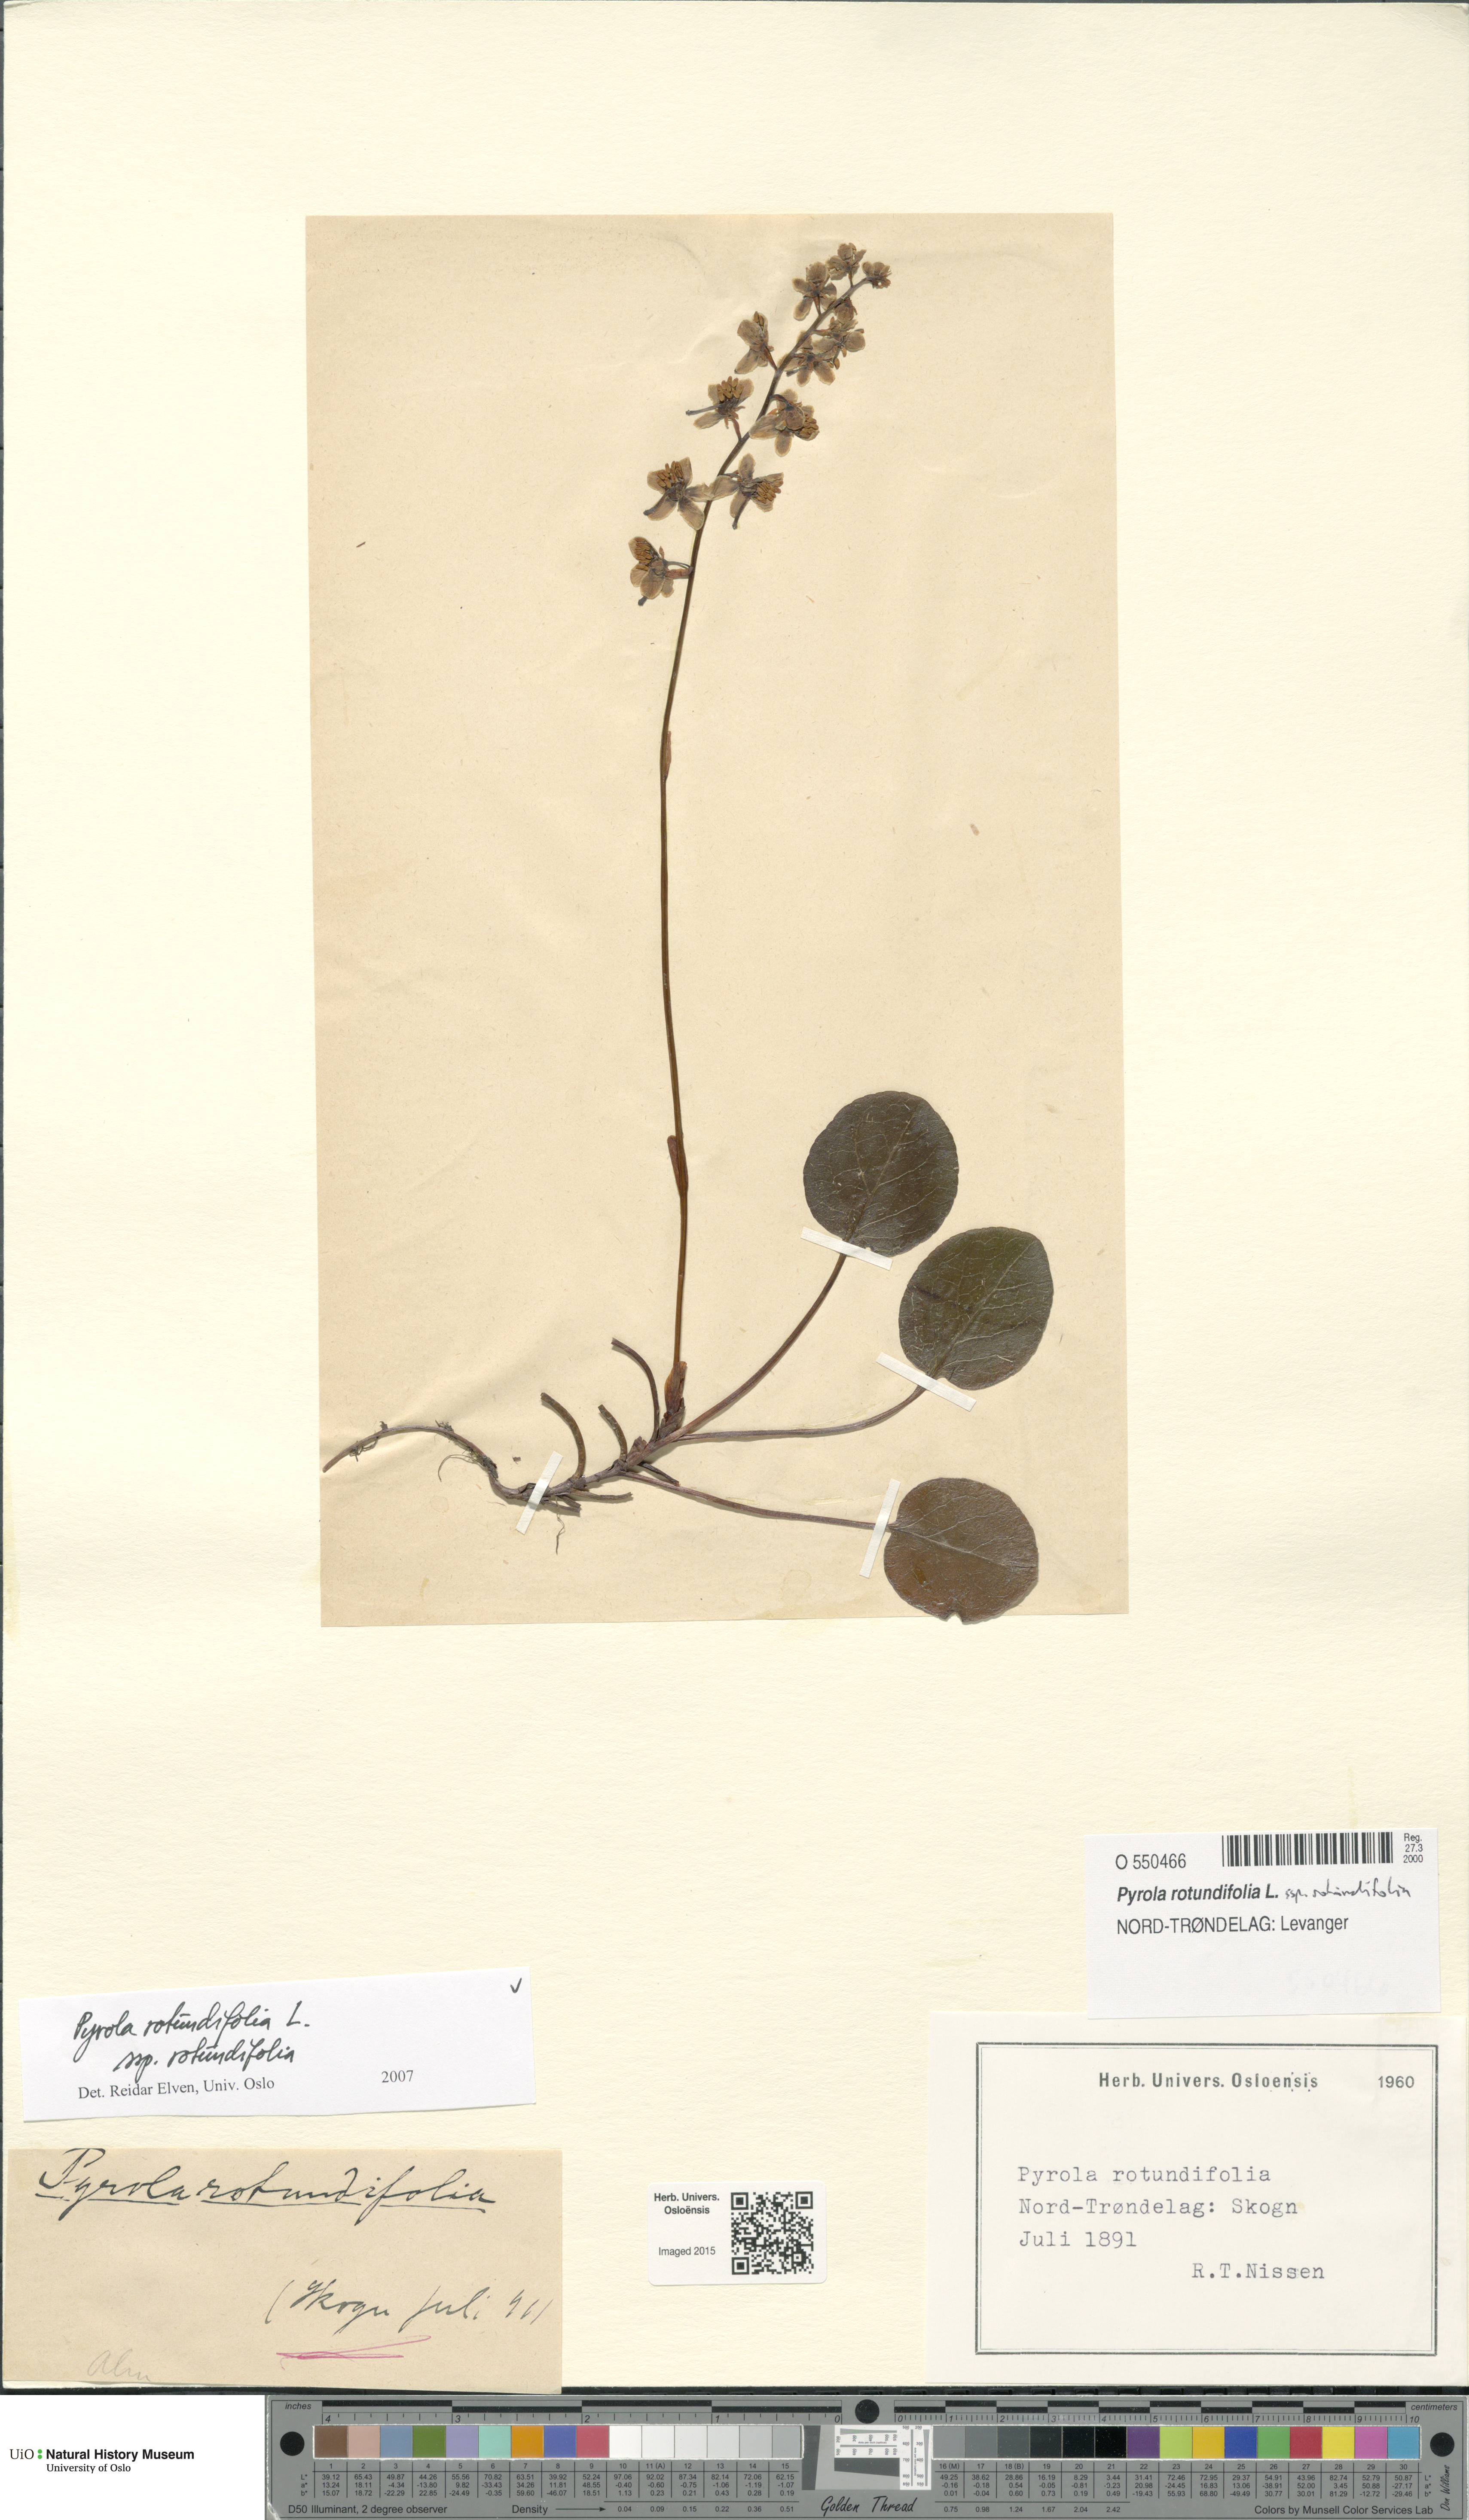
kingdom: Plantae
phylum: Tracheophyta
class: Magnoliopsida
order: Ericales
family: Ericaceae
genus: Pyrola
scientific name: Pyrola rotundifolia
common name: Round-leaved wintergreen
